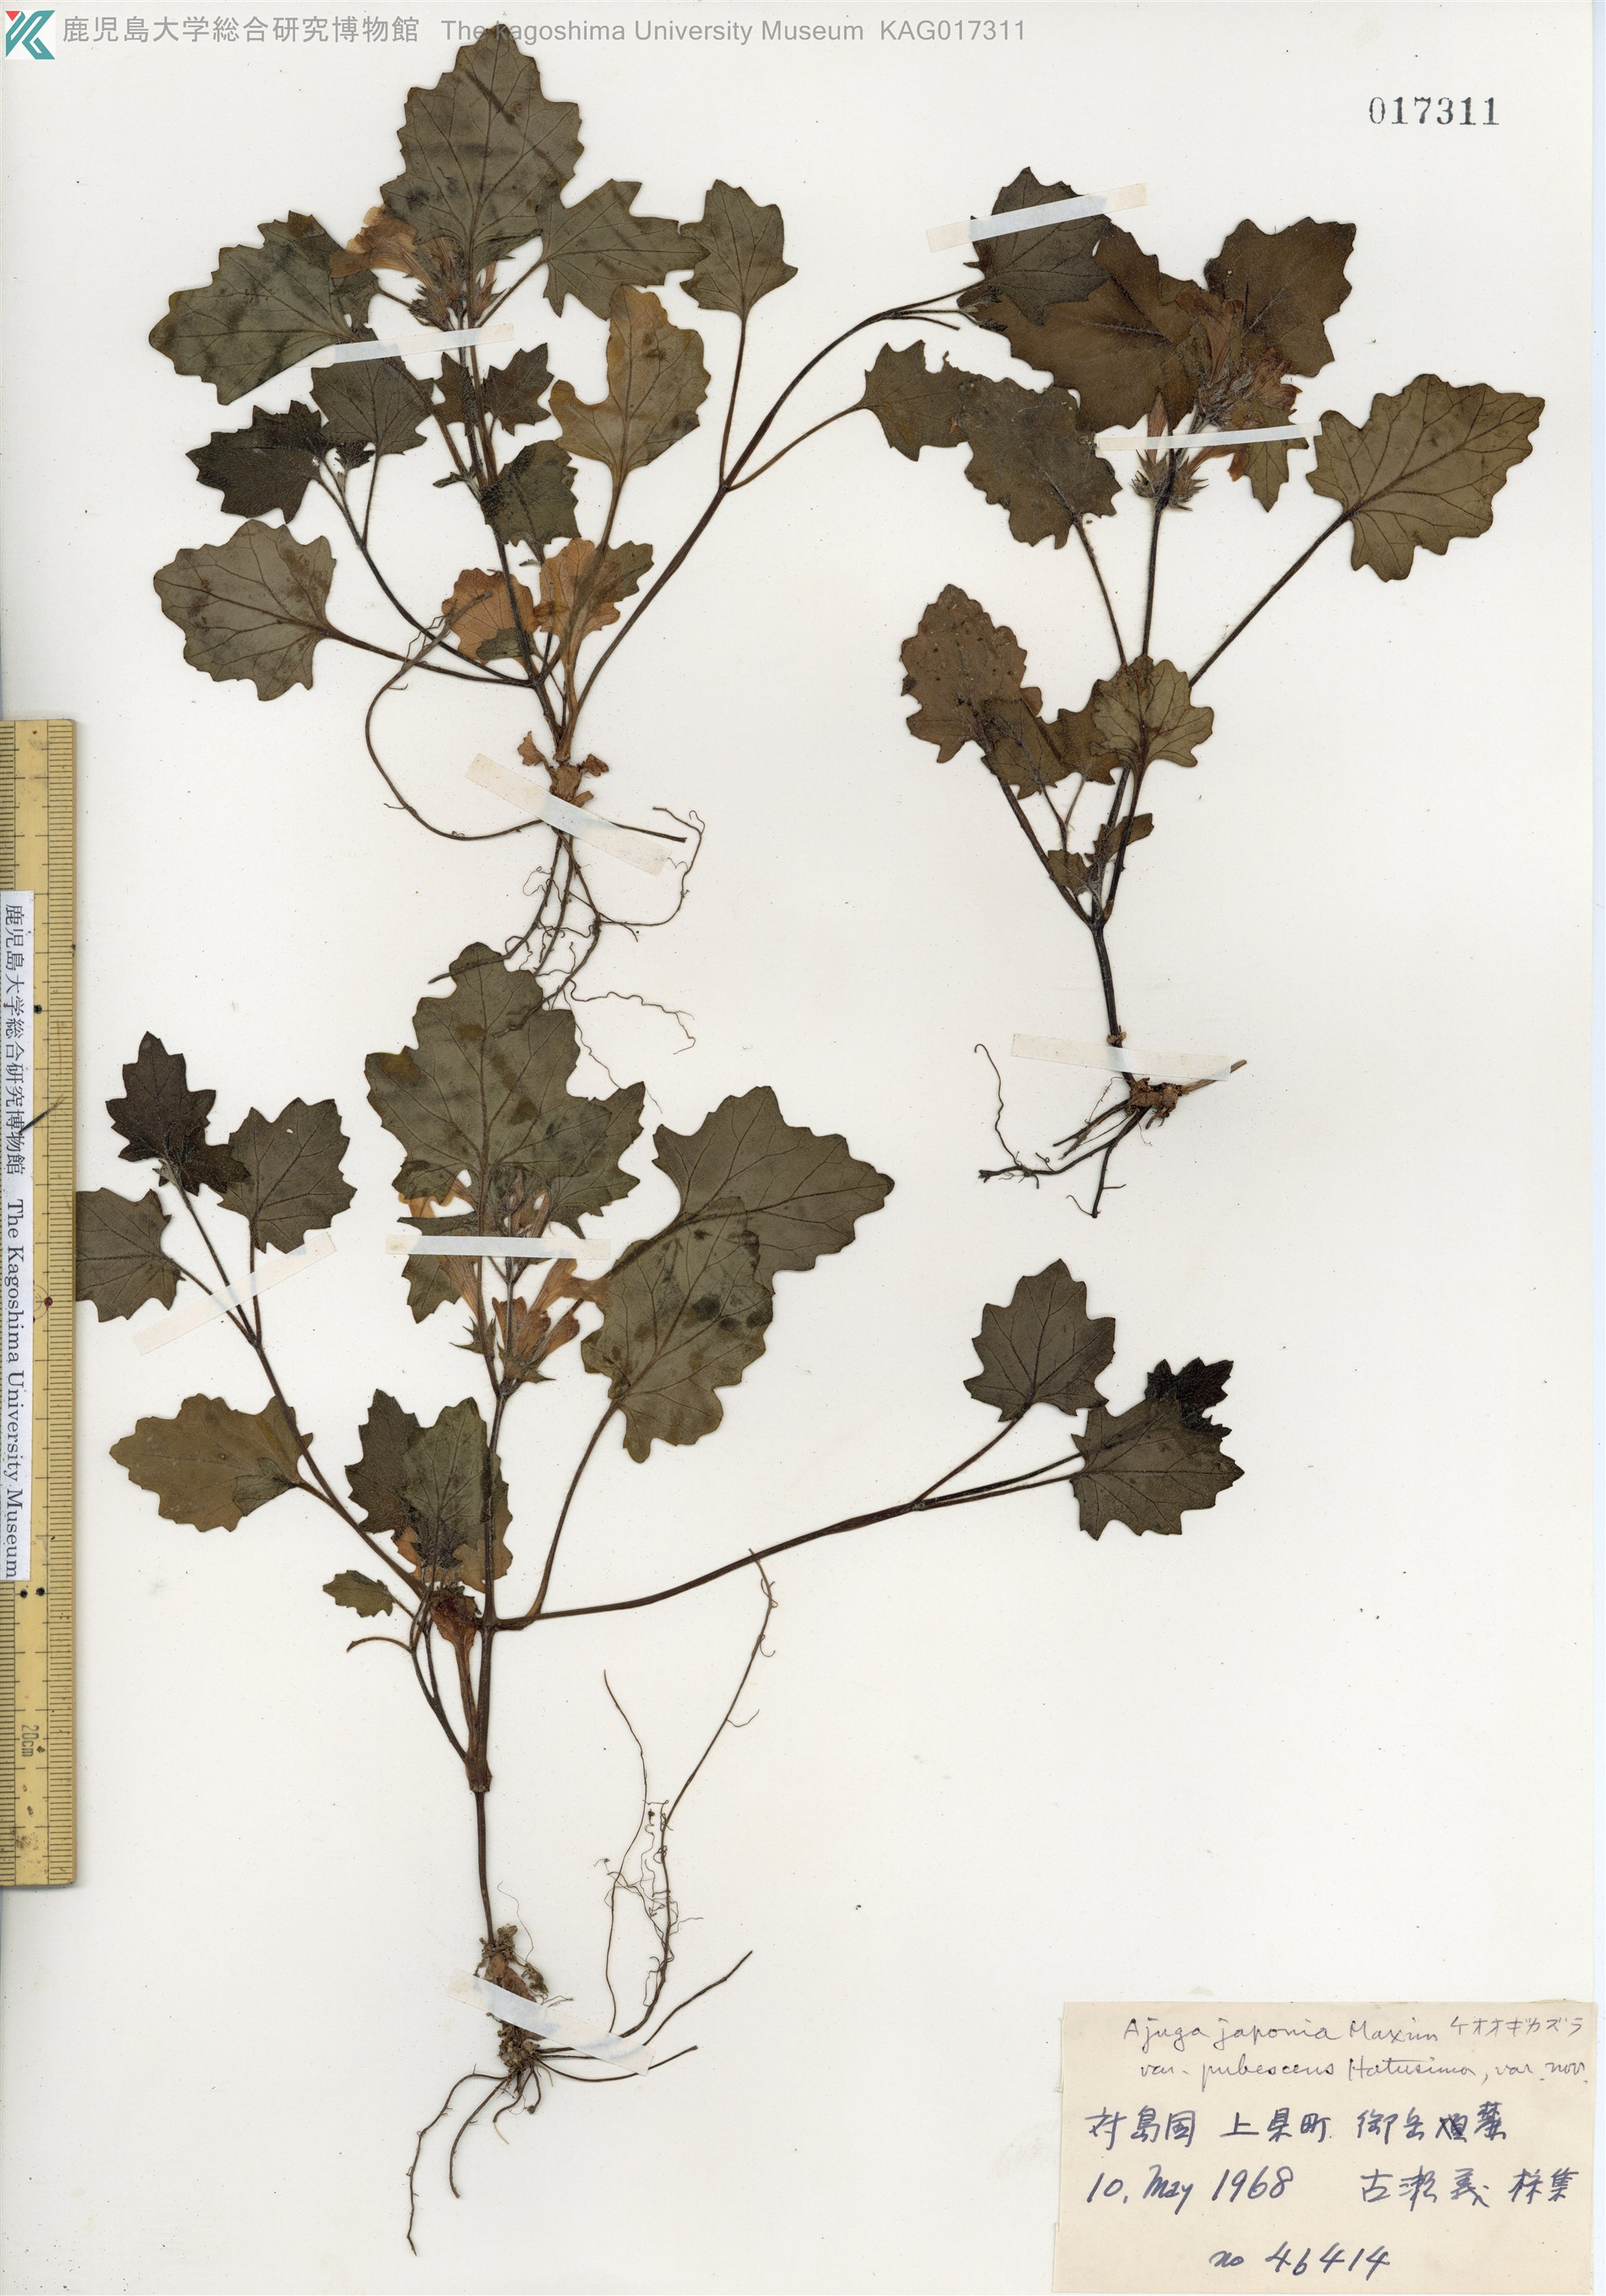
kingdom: Plantae
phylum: Tracheophyta
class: Magnoliopsida
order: Lamiales
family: Lamiaceae
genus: Ajuga
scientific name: Ajuga japonica
